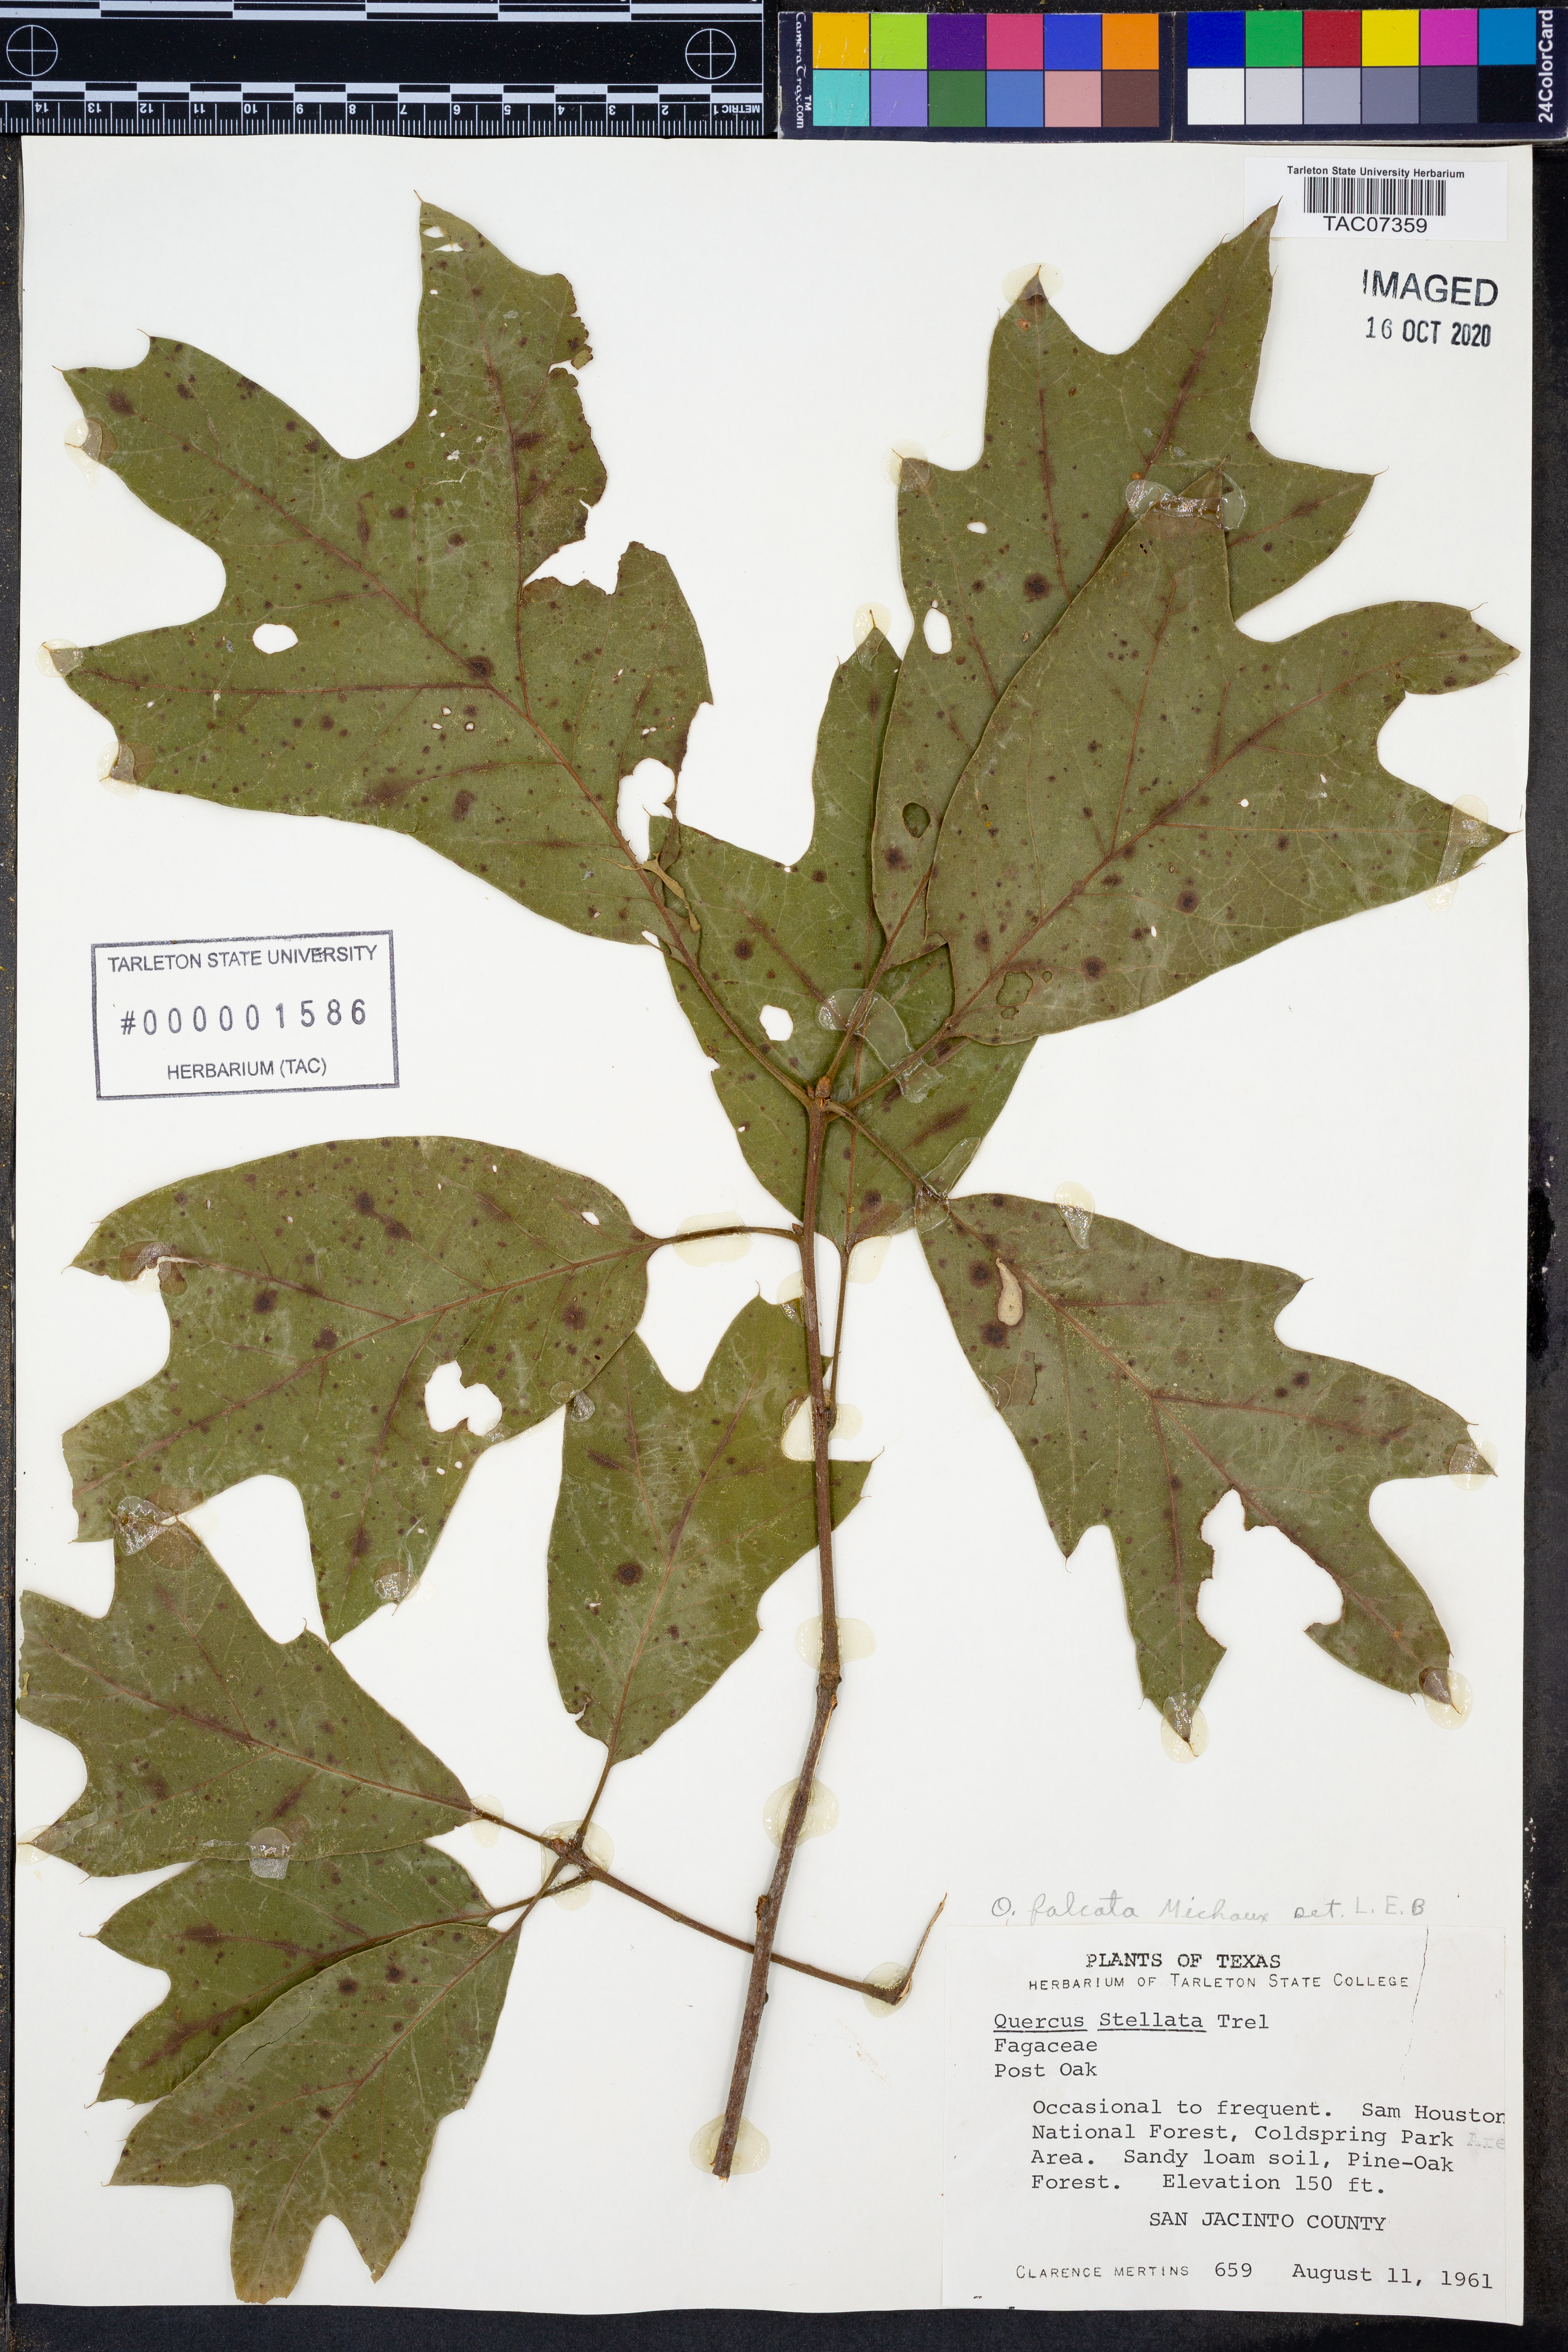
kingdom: Plantae
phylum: Tracheophyta
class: Magnoliopsida
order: Fagales
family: Fagaceae
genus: Quercus
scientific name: Quercus falcata
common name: Southern red oak
